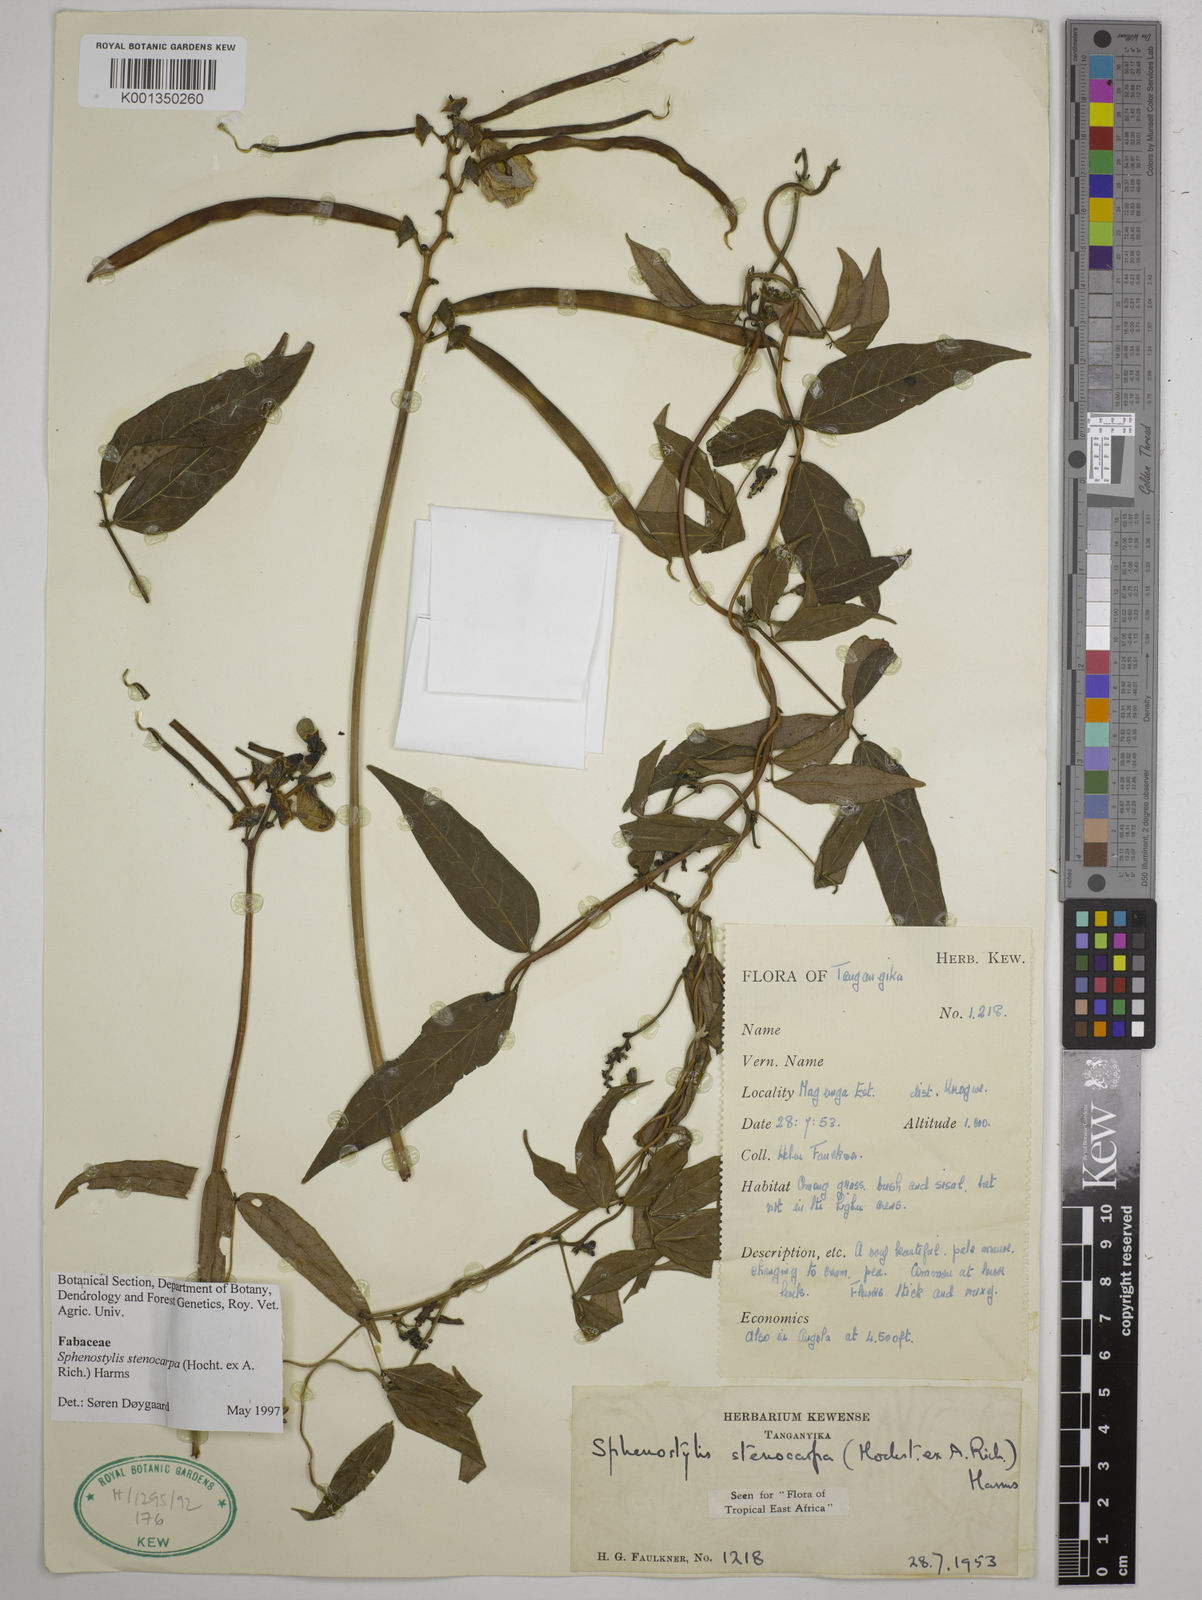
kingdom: Plantae
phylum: Tracheophyta
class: Magnoliopsida
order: Fabales
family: Fabaceae
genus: Sphenostylis
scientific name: Sphenostylis stenocarpa
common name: Yam-pea
